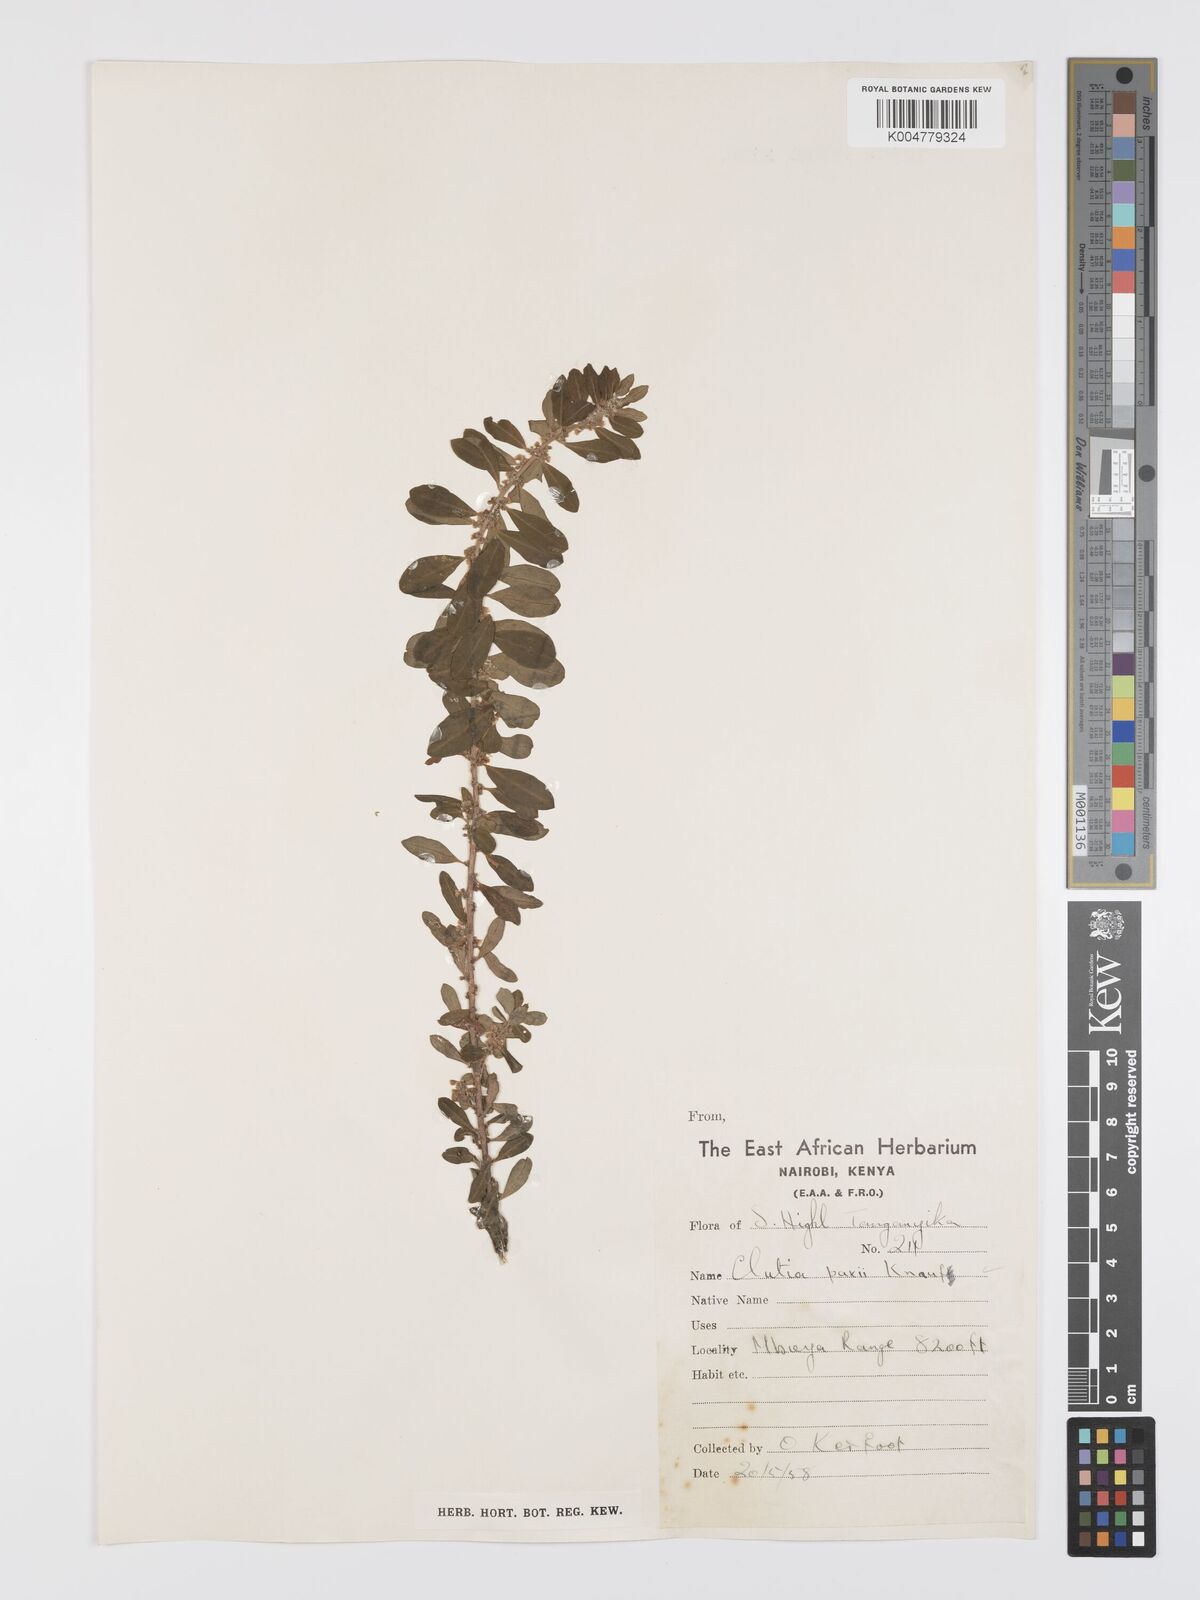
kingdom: Plantae
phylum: Tracheophyta
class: Magnoliopsida
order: Malpighiales
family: Peraceae
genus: Clutia
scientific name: Clutia paxii
